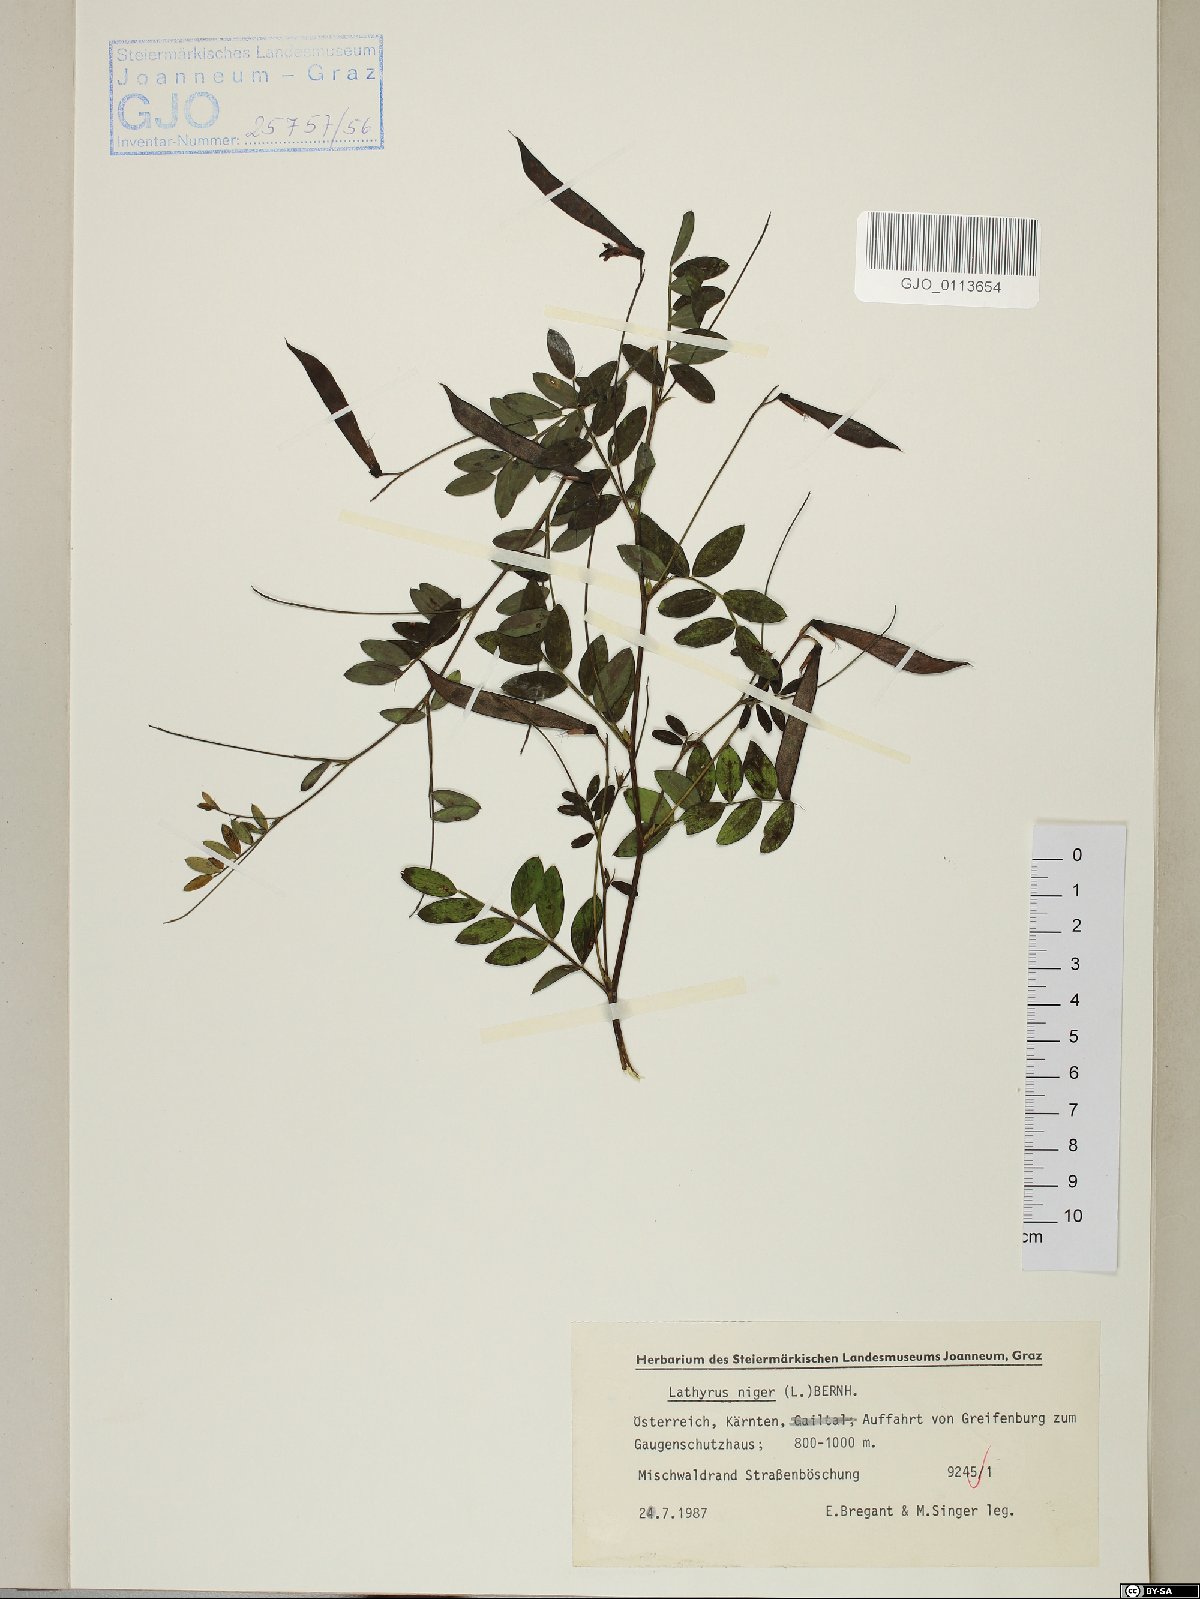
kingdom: Plantae
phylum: Tracheophyta
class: Magnoliopsida
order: Fabales
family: Fabaceae
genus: Lathyrus
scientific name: Lathyrus niger
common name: Black pea
